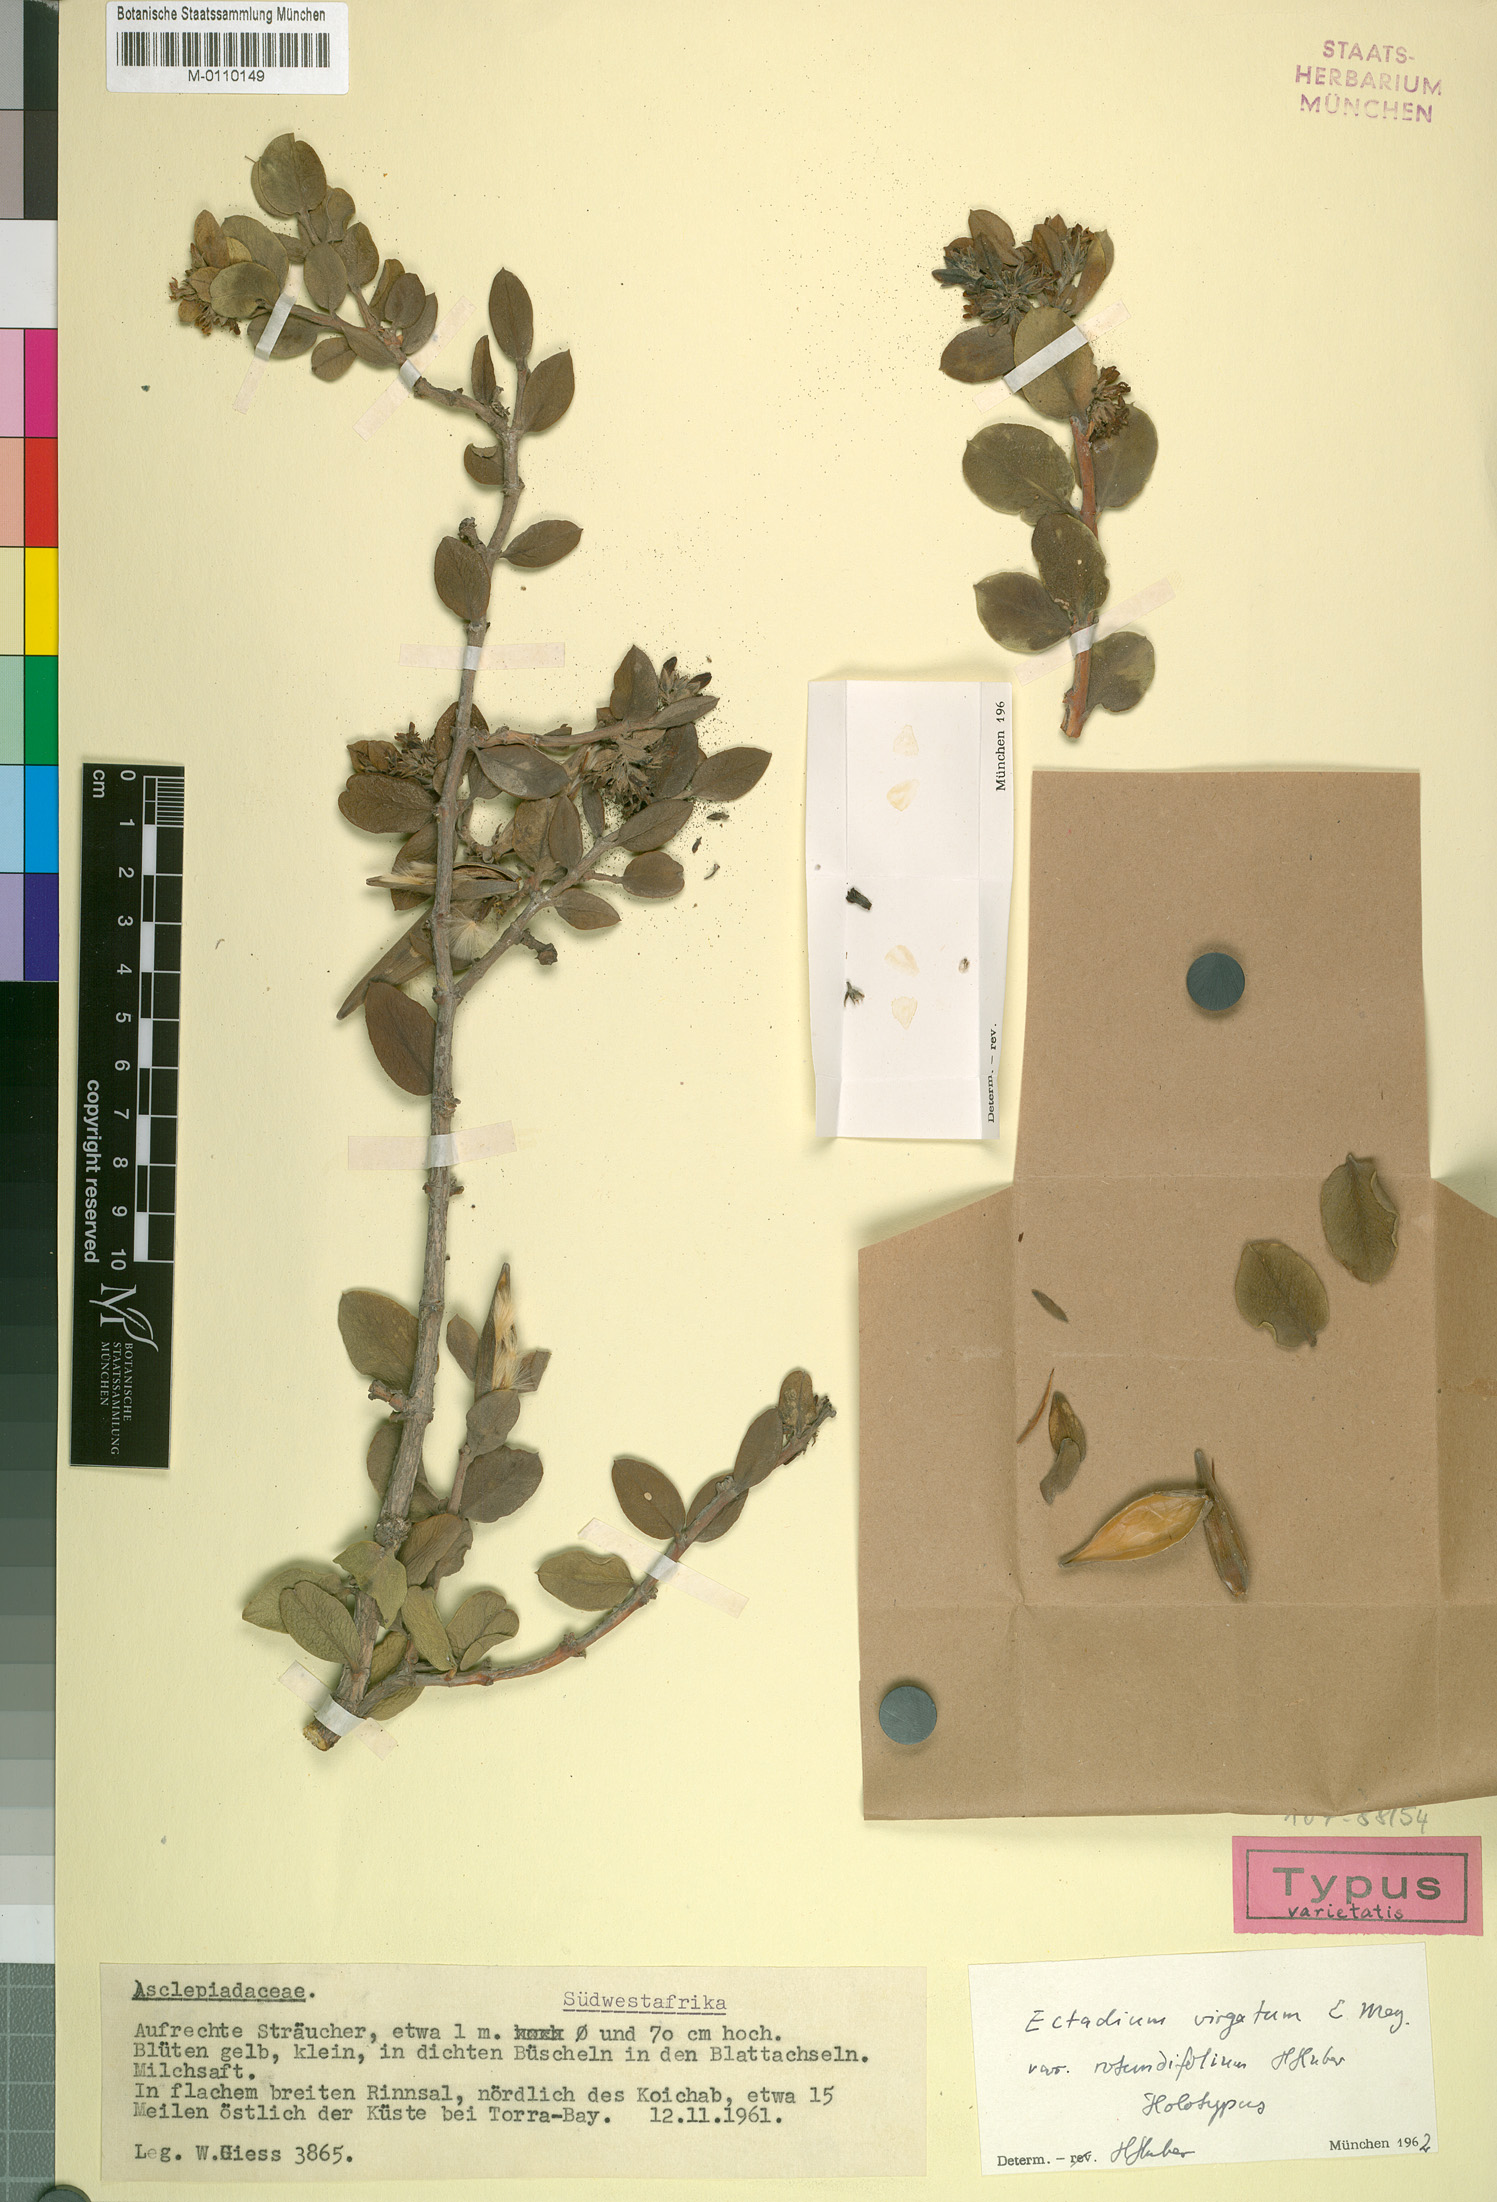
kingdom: Plantae
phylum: Tracheophyta
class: Magnoliopsida
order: Gentianales
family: Apocynaceae
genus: Ectadium
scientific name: Ectadium rotundifolium
